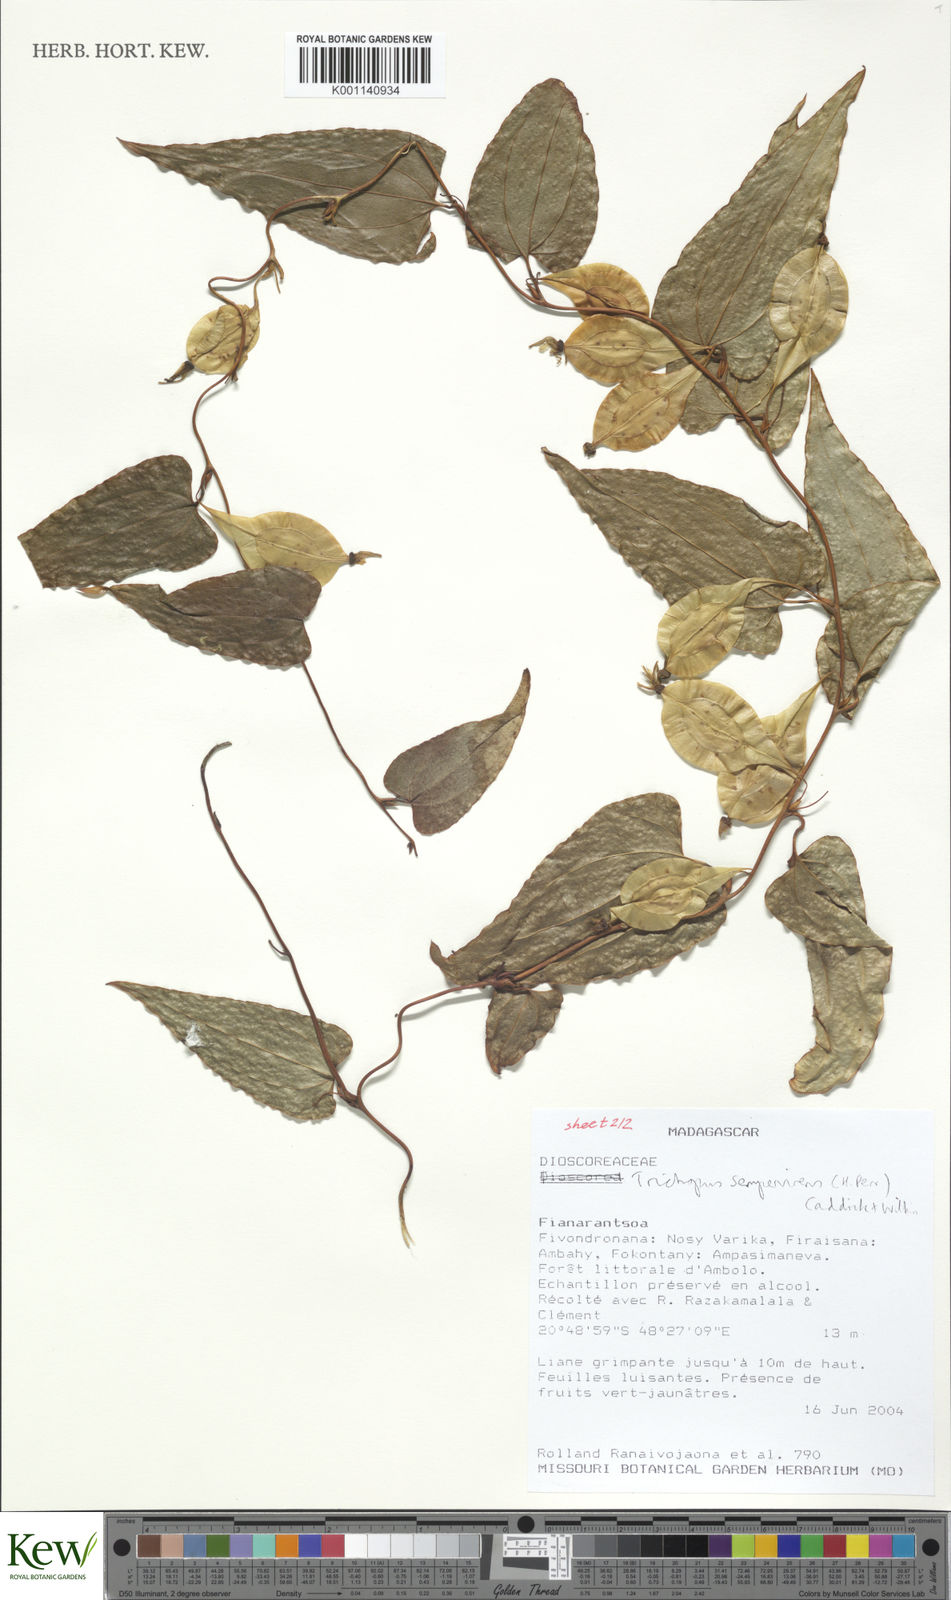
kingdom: Plantae
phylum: Tracheophyta
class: Liliopsida
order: Dioscoreales
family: Dioscoreaceae
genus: Trichopus
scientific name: Trichopus sempervirens
